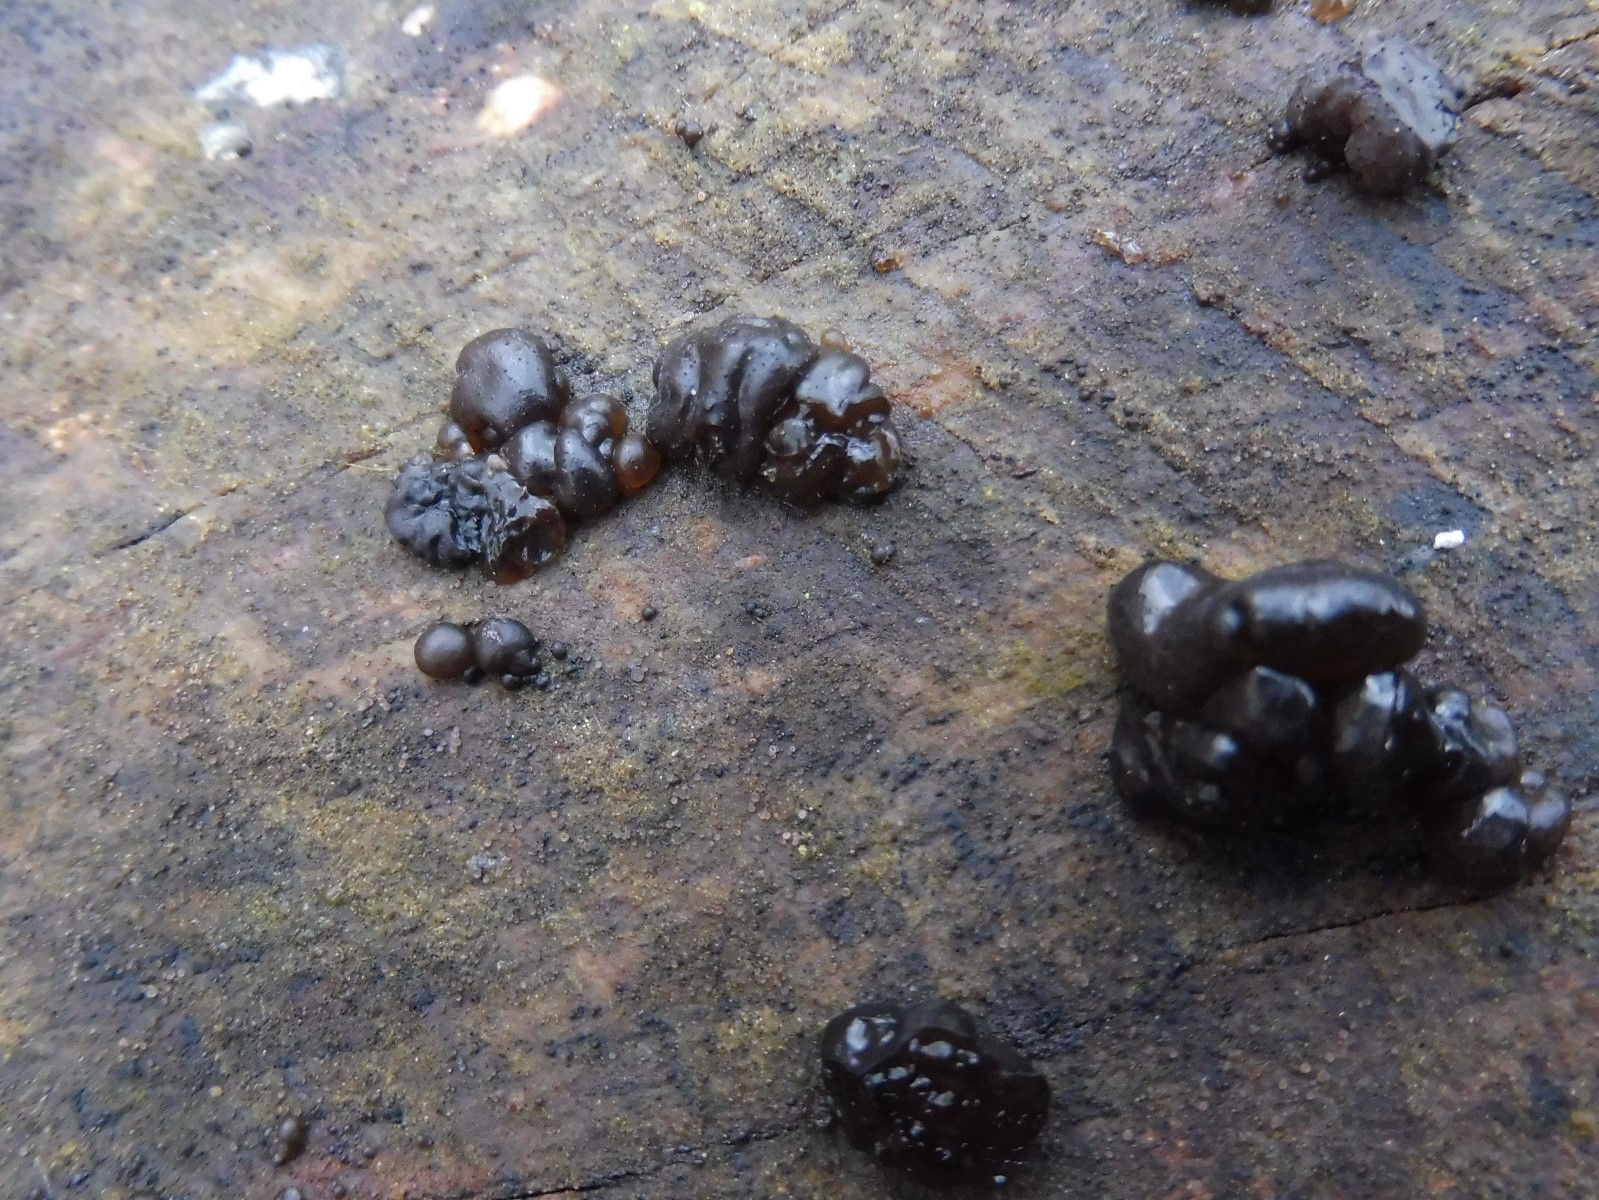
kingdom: Fungi
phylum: Basidiomycota
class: Agaricomycetes
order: Auriculariales
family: Auriculariaceae
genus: Exidia
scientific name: Exidia nigricans
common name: almindelig bævretop
